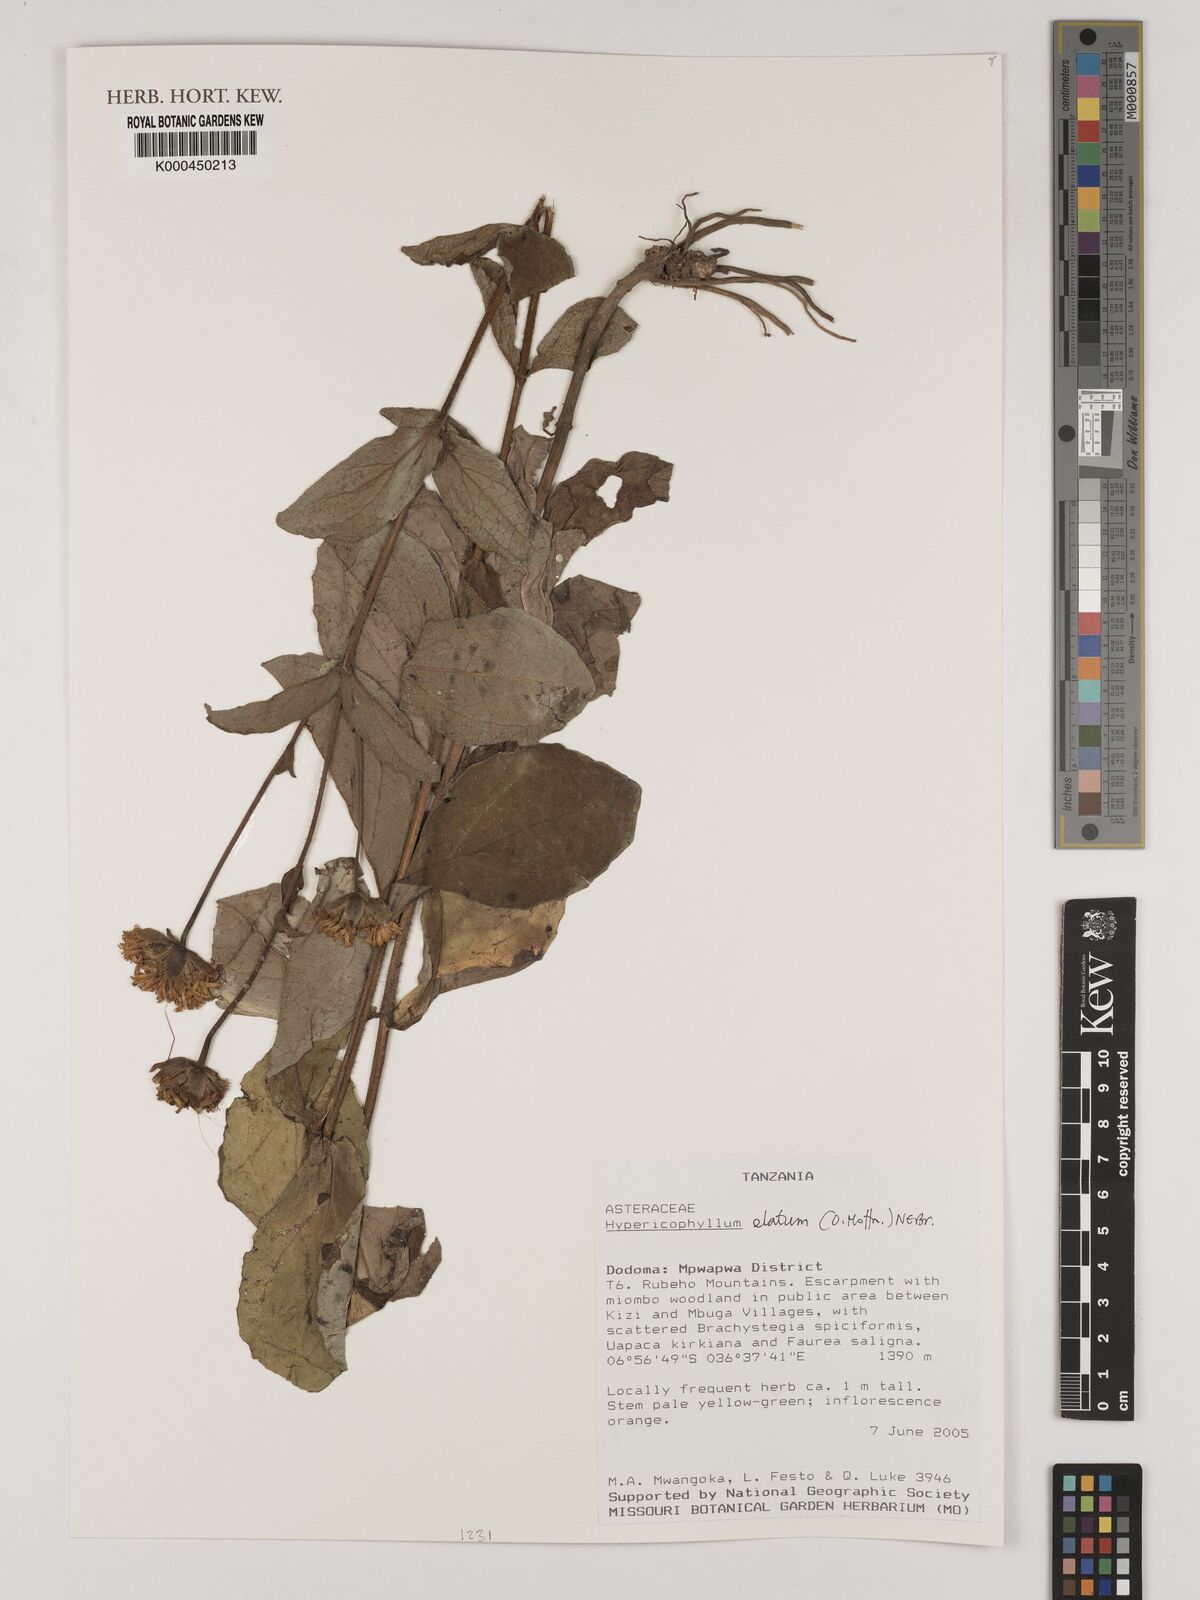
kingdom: Plantae
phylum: Tracheophyta
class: Magnoliopsida
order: Asterales
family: Asteraceae
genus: Hypericophyllum
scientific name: Hypericophyllum elatum
